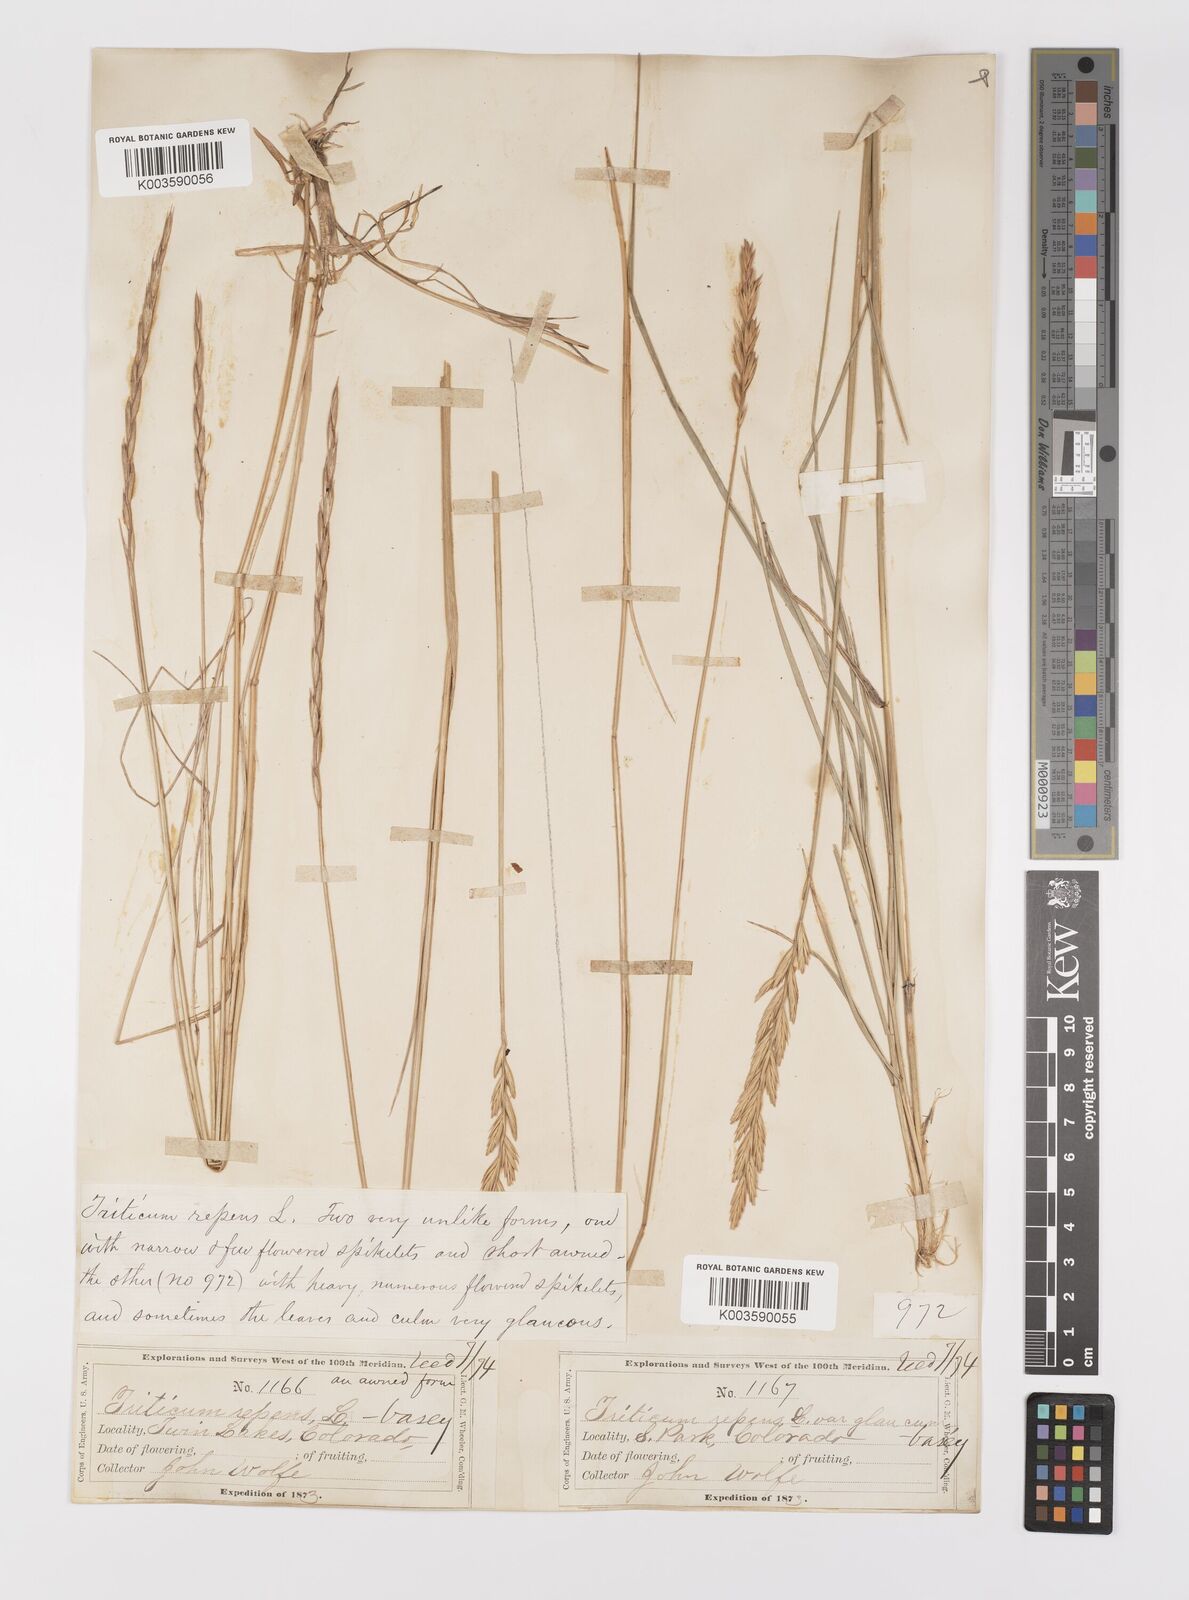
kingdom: Plantae
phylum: Tracheophyta
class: Liliopsida
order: Poales
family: Poaceae
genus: Elymus
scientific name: Elymus repens
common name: Quackgrass
